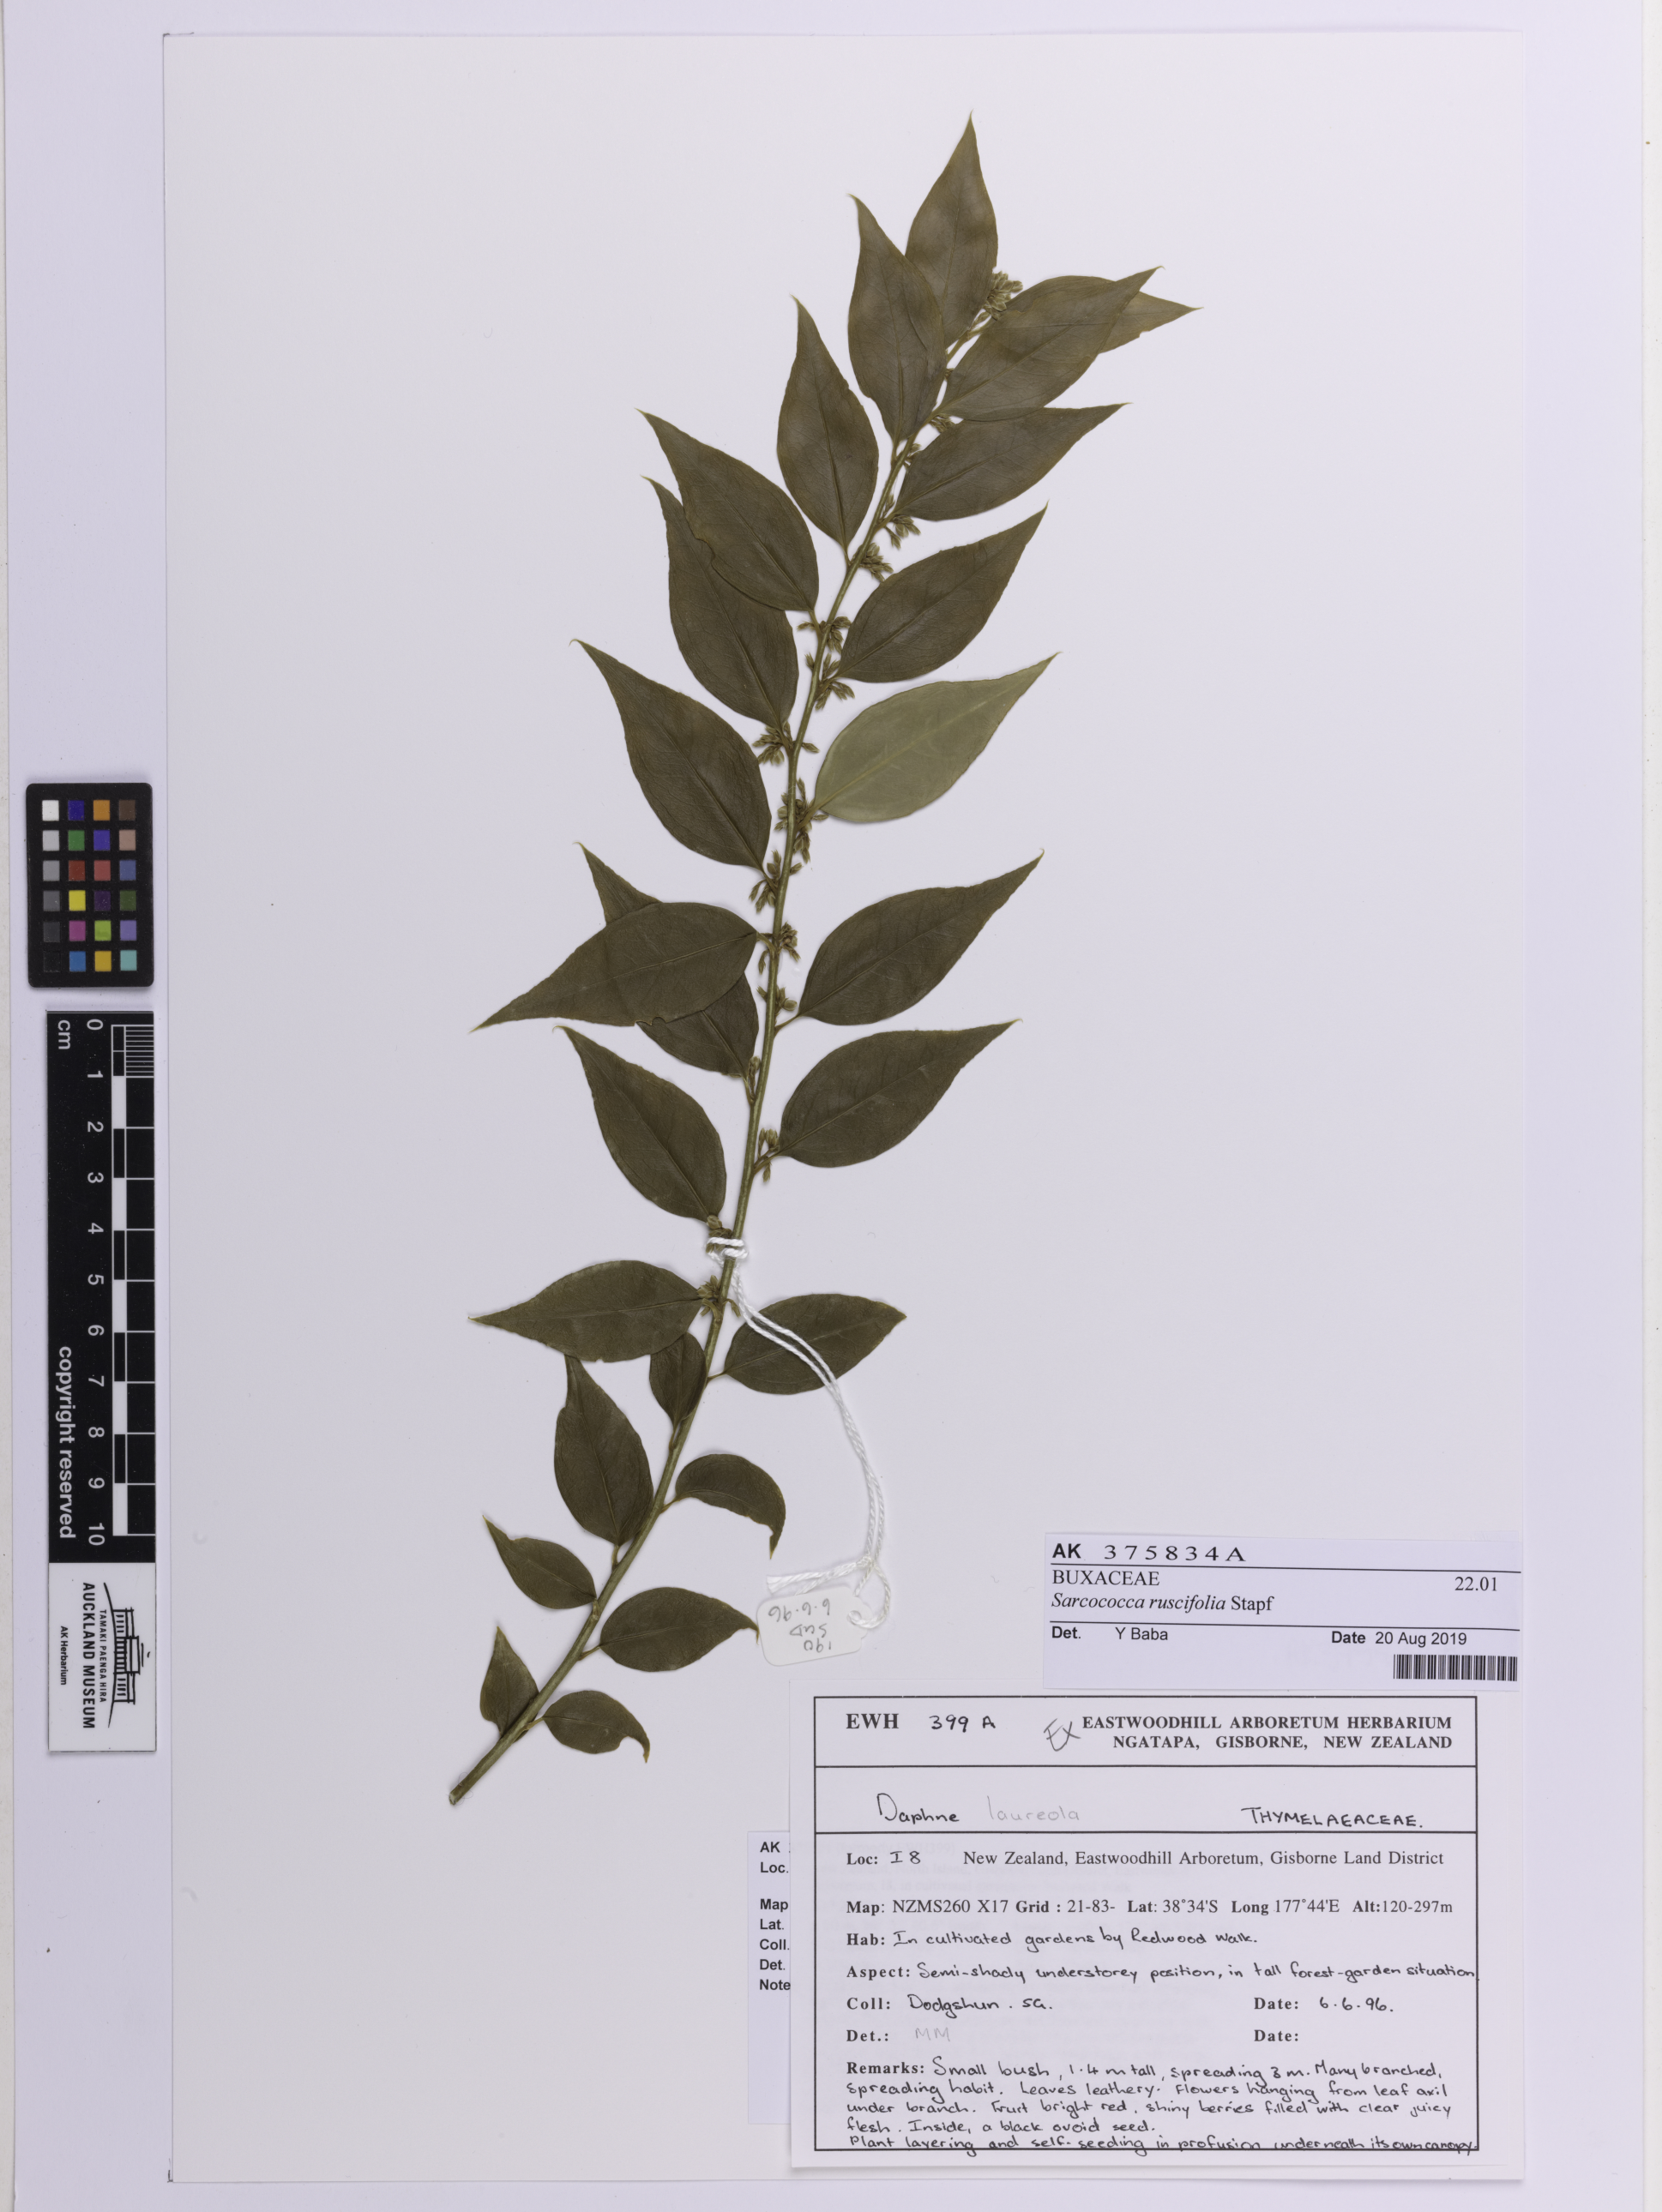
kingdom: Plantae
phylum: Tracheophyta
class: Magnoliopsida
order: Buxales
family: Buxaceae
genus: Sarcococca
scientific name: Sarcococca ruscifolia
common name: Fragrant sweet-box
